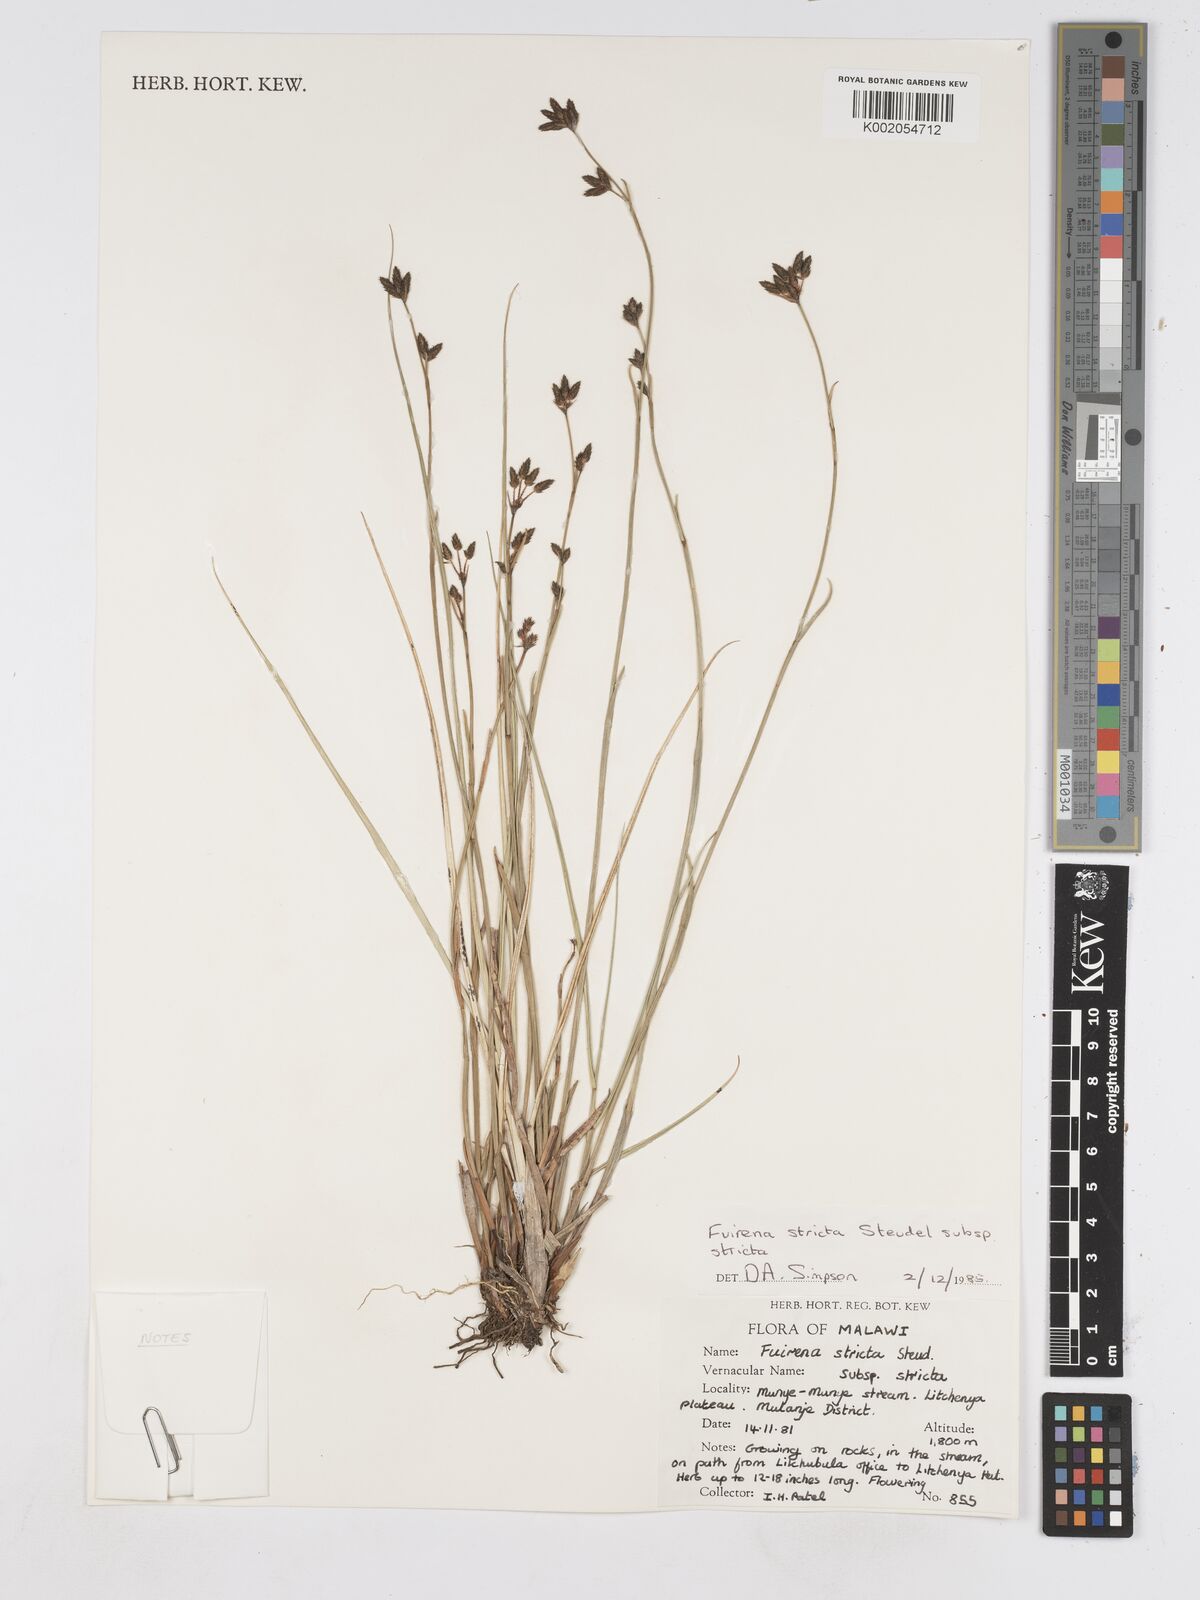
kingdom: Plantae
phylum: Tracheophyta
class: Liliopsida
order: Poales
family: Cyperaceae
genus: Fuirena
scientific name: Fuirena stricta
